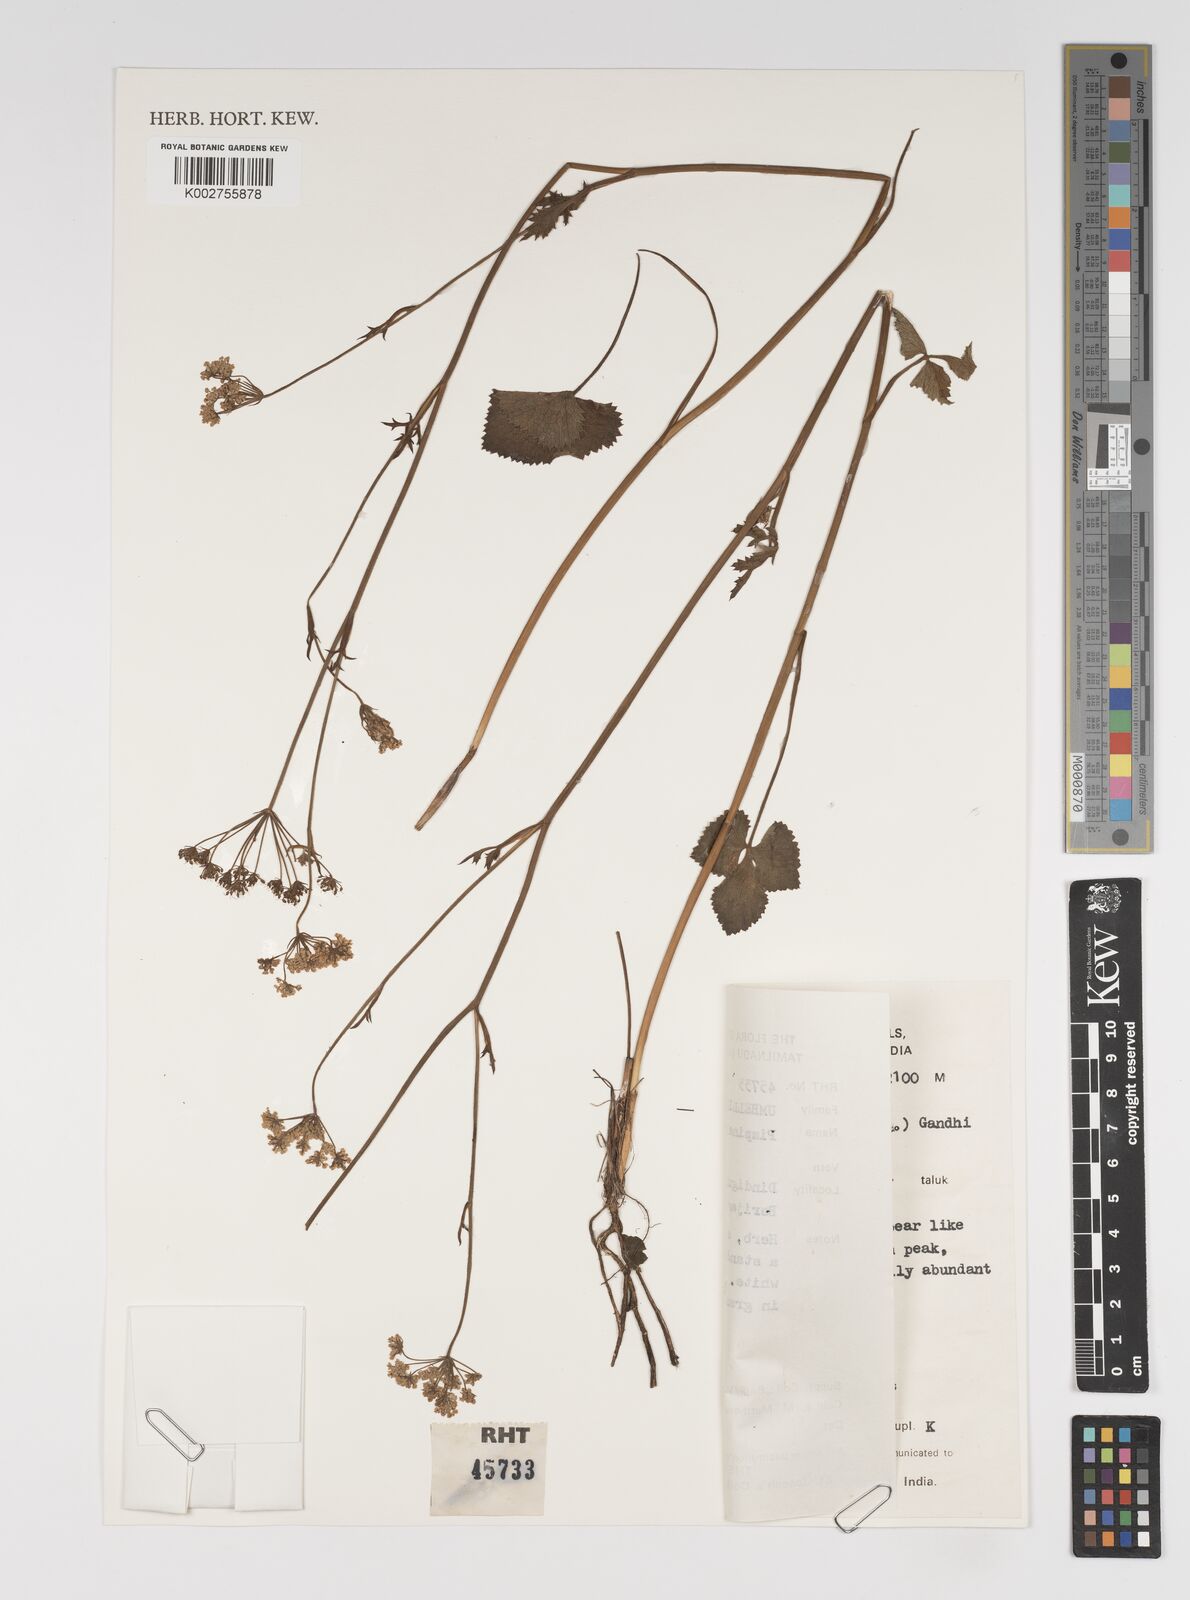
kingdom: Plantae
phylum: Tracheophyta
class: Magnoliopsida
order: Apiales
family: Apiaceae
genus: Pimpinella
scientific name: Pimpinella wallichii
